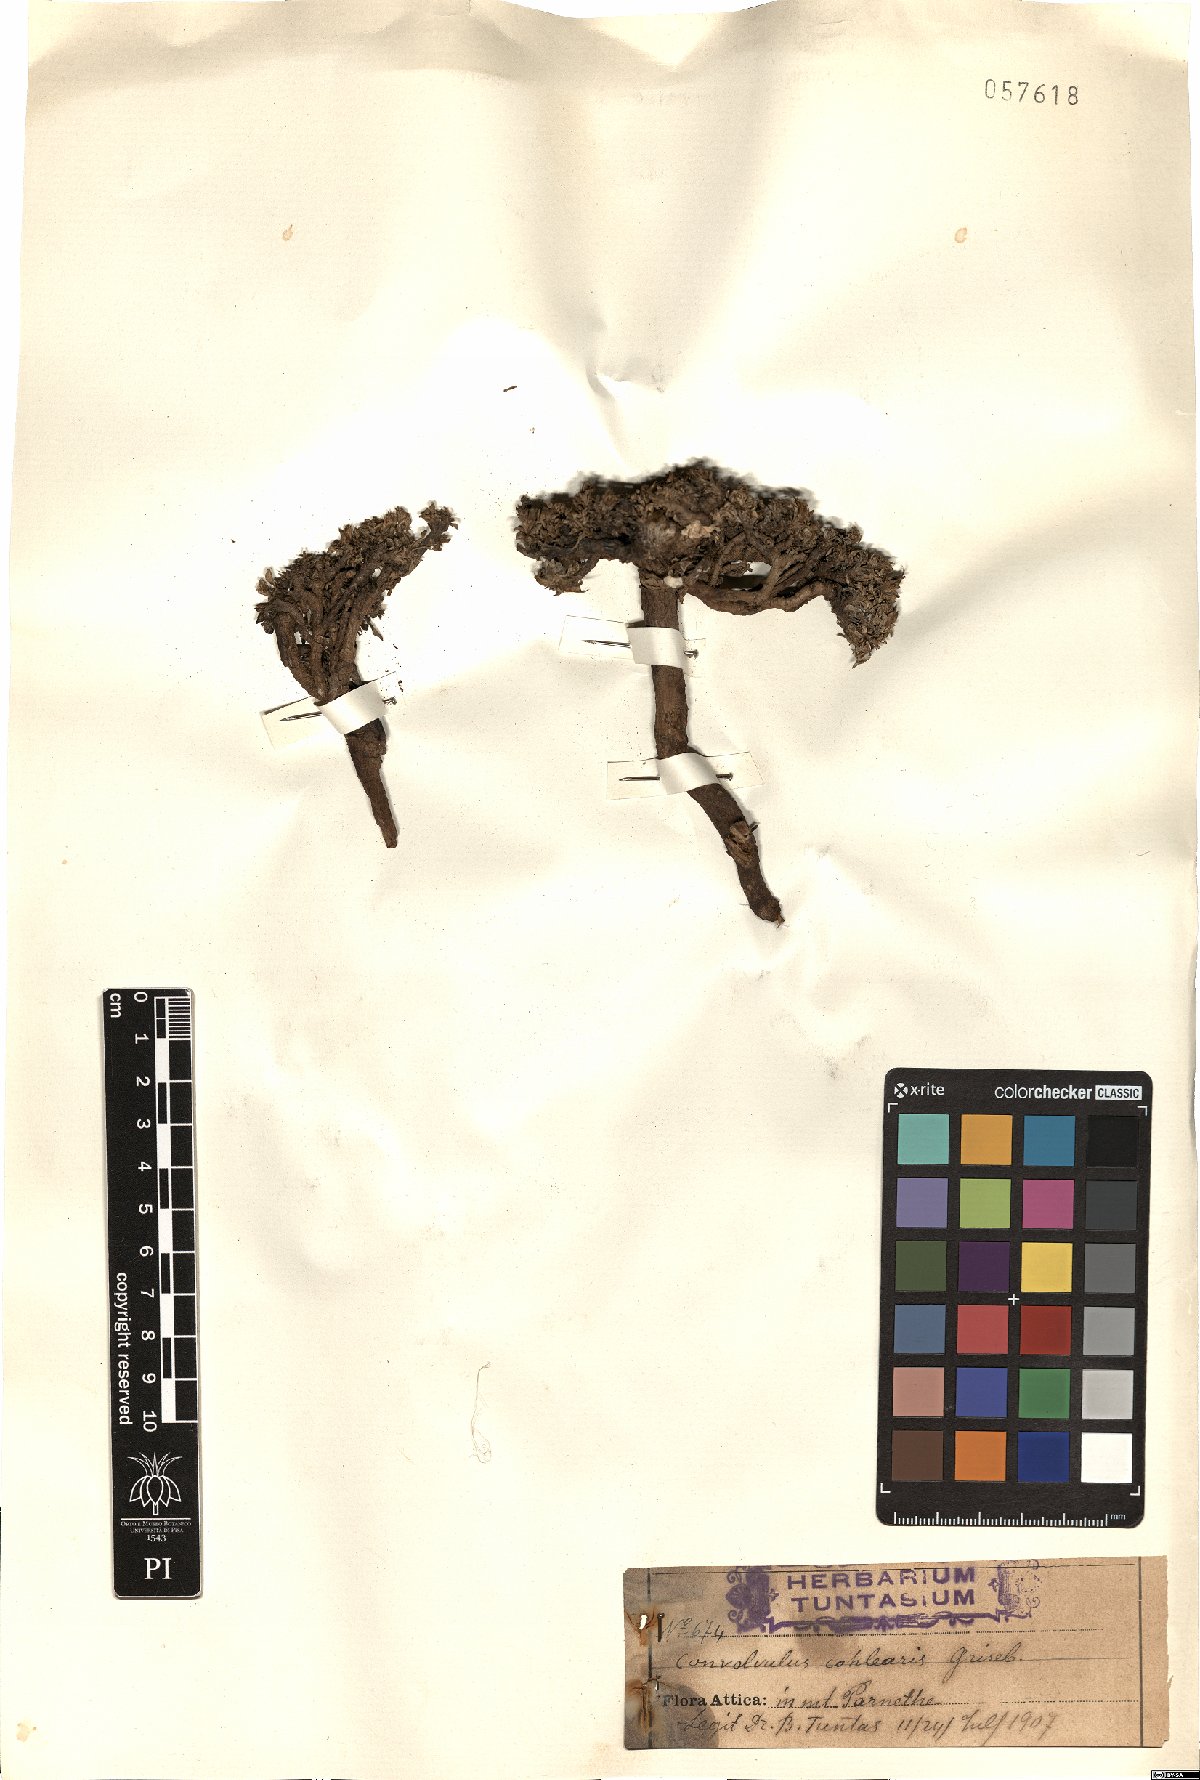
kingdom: Plantae
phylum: Tracheophyta
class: Magnoliopsida
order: Solanales
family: Convolvulaceae
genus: Convolvulus
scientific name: Convolvulus boissieri
